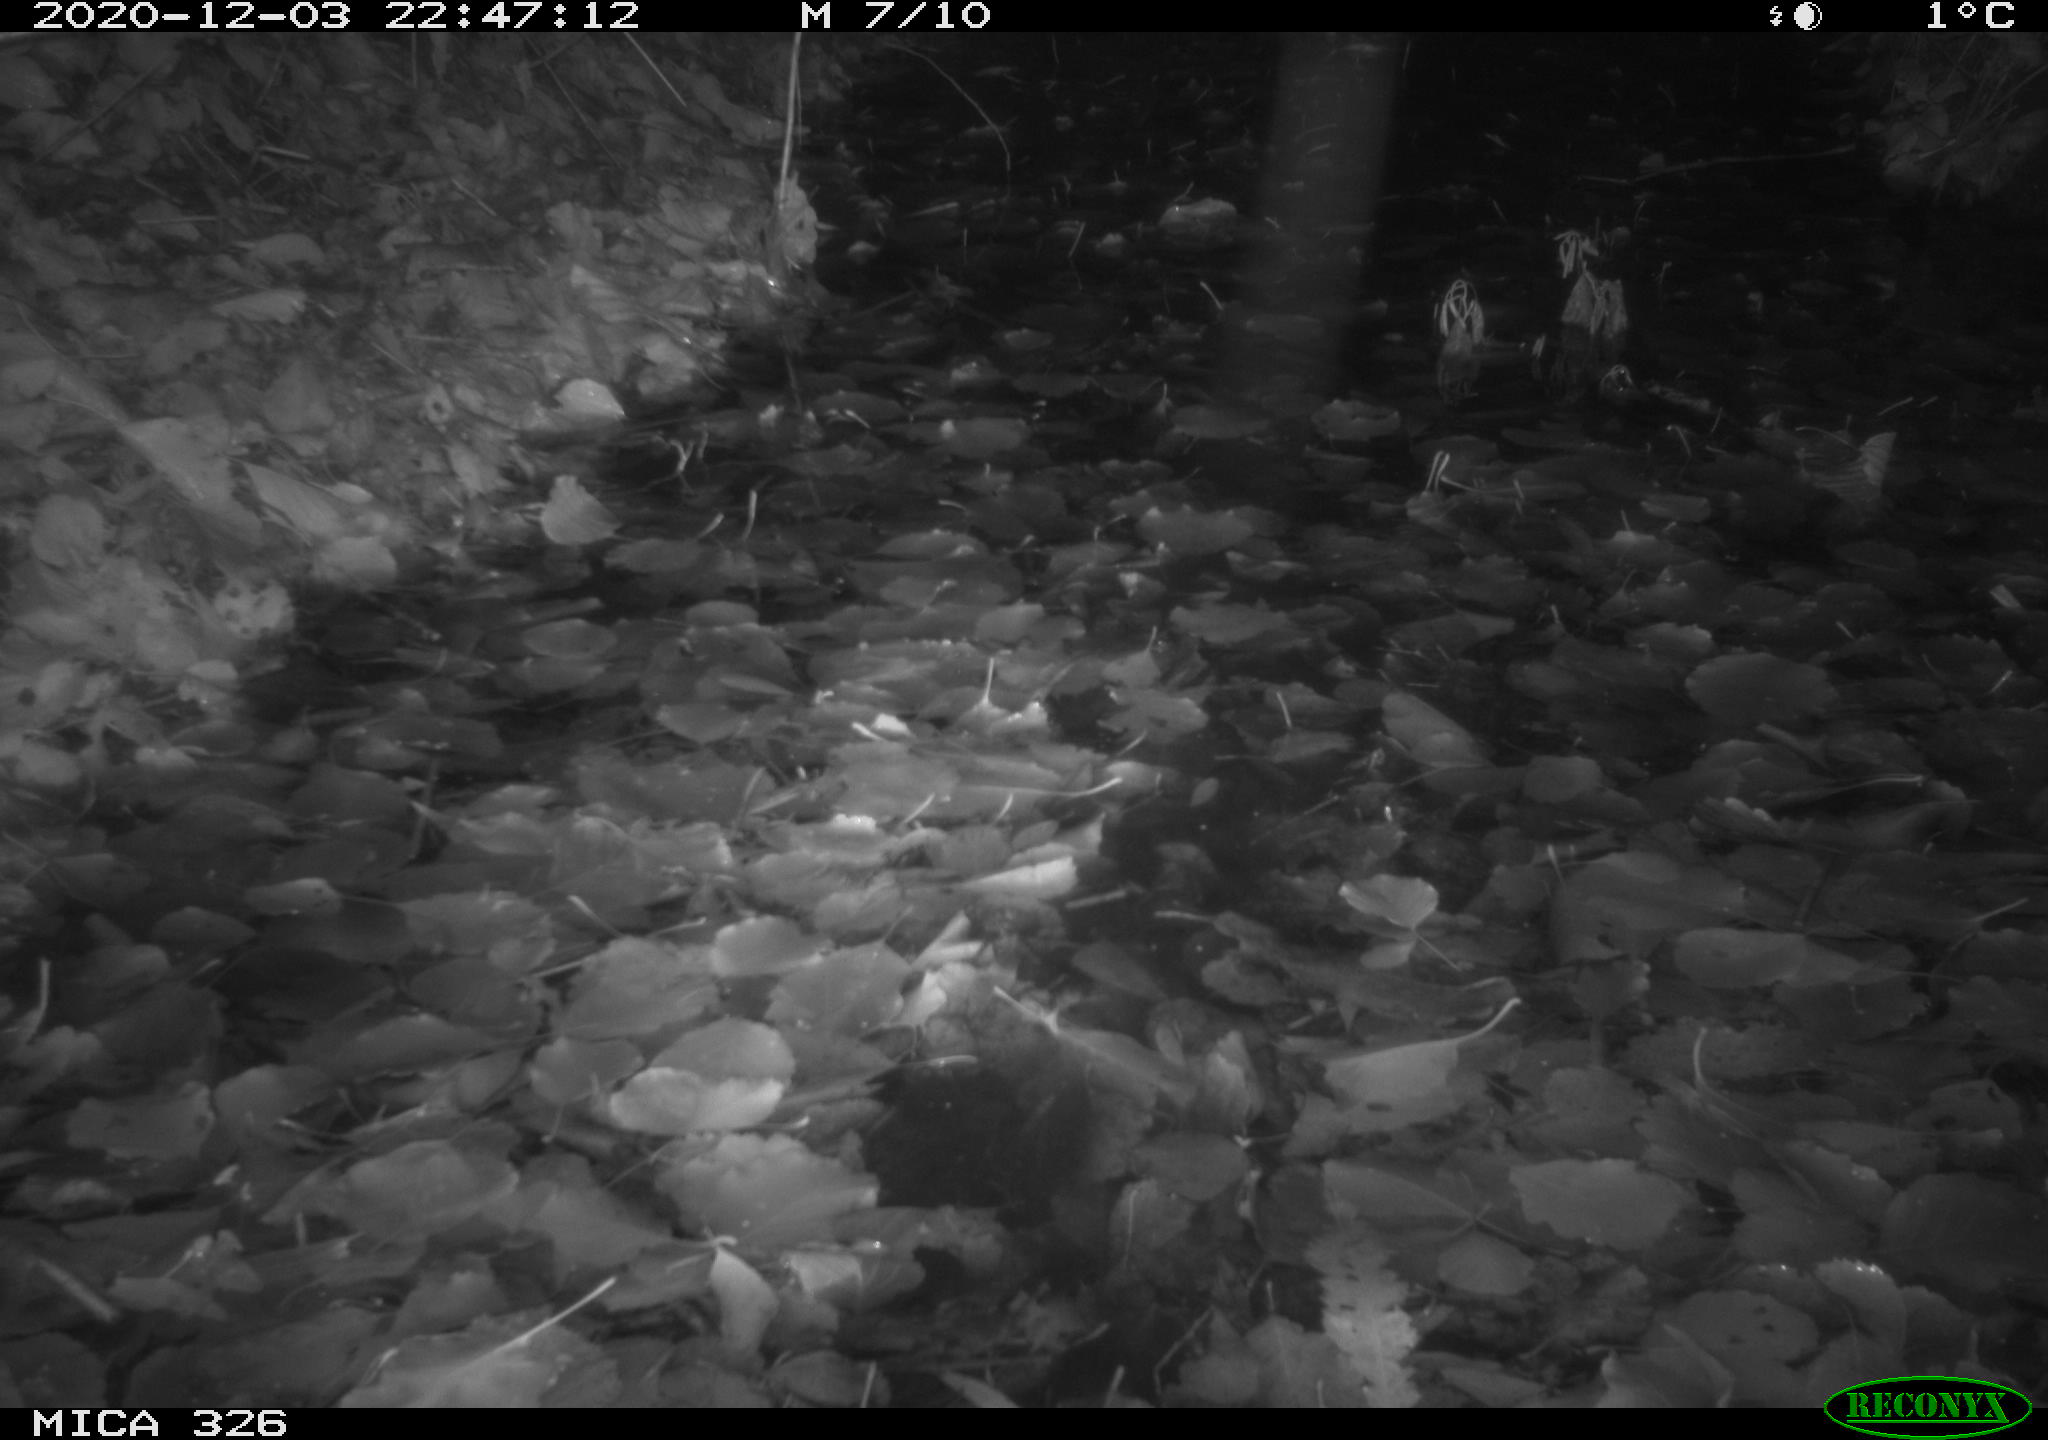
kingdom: Animalia
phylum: Chordata
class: Mammalia
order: Carnivora
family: Mustelidae
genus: Lutra
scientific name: Lutra lutra
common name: European otter
